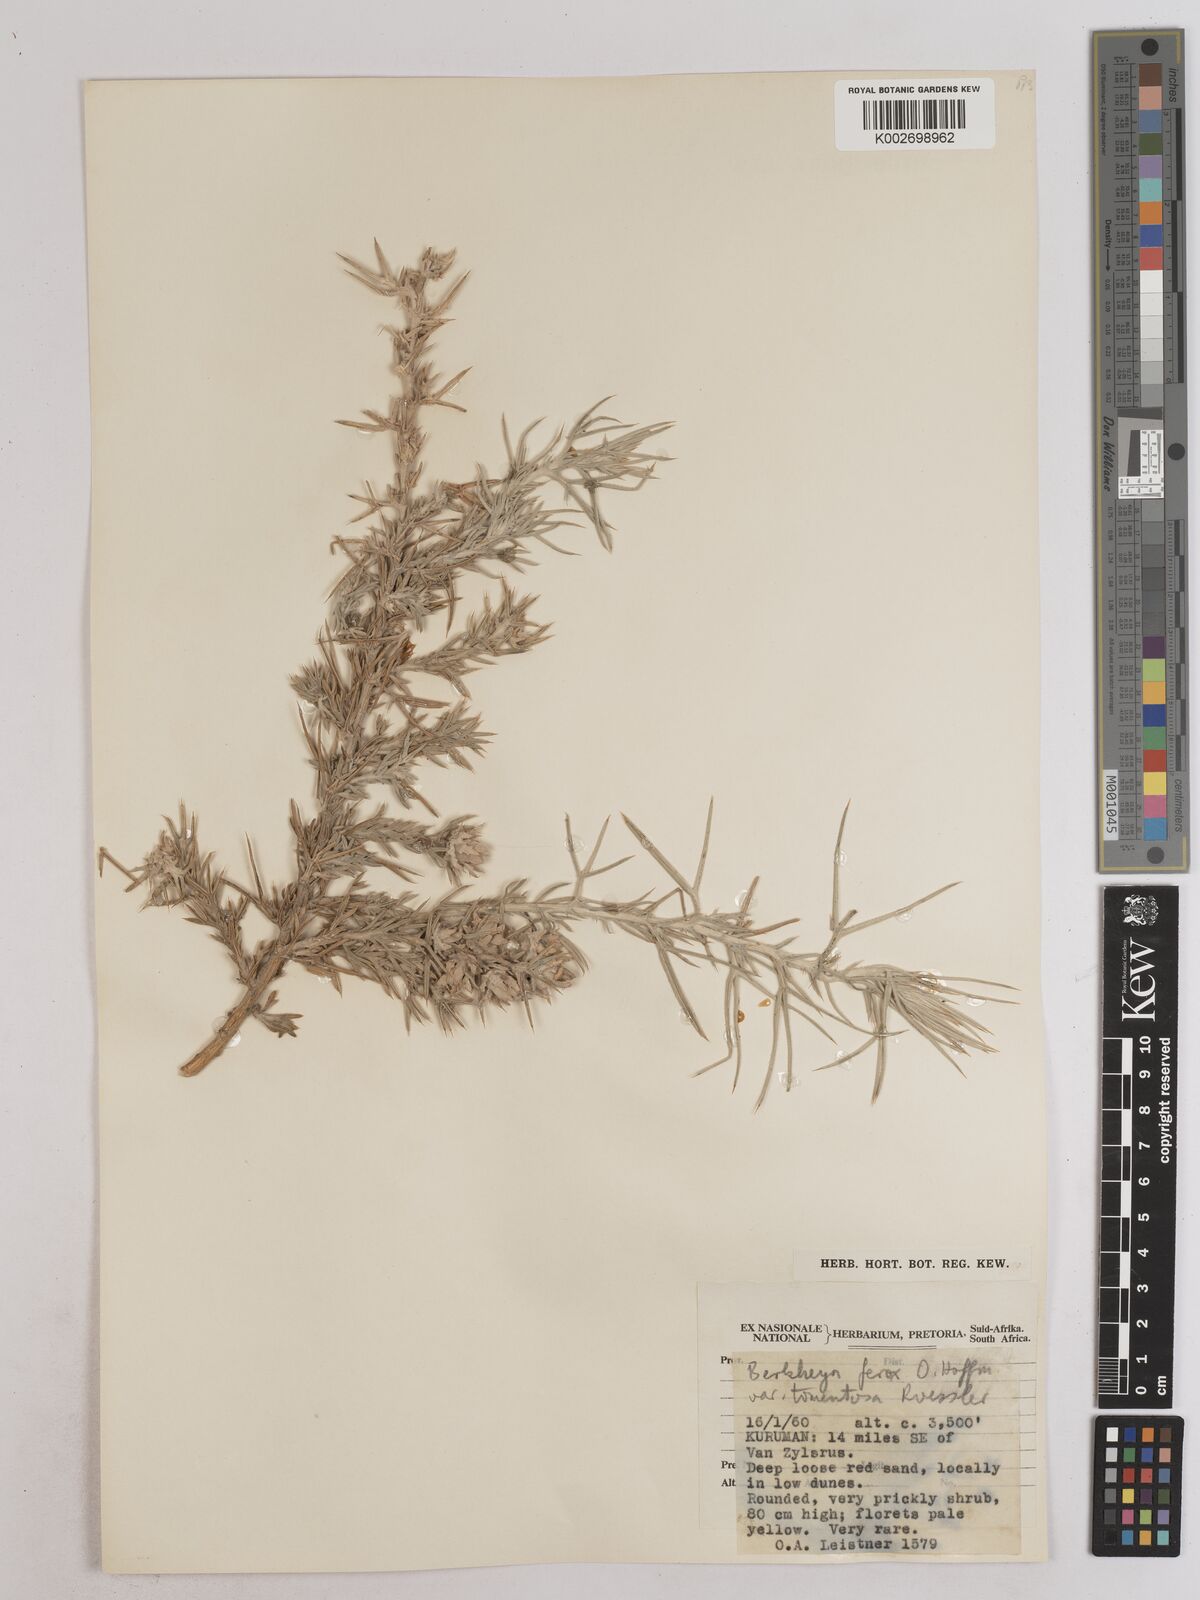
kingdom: Plantae
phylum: Tracheophyta
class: Magnoliopsida
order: Asterales
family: Asteraceae
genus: Berkheya
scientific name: Berkheya ferox
